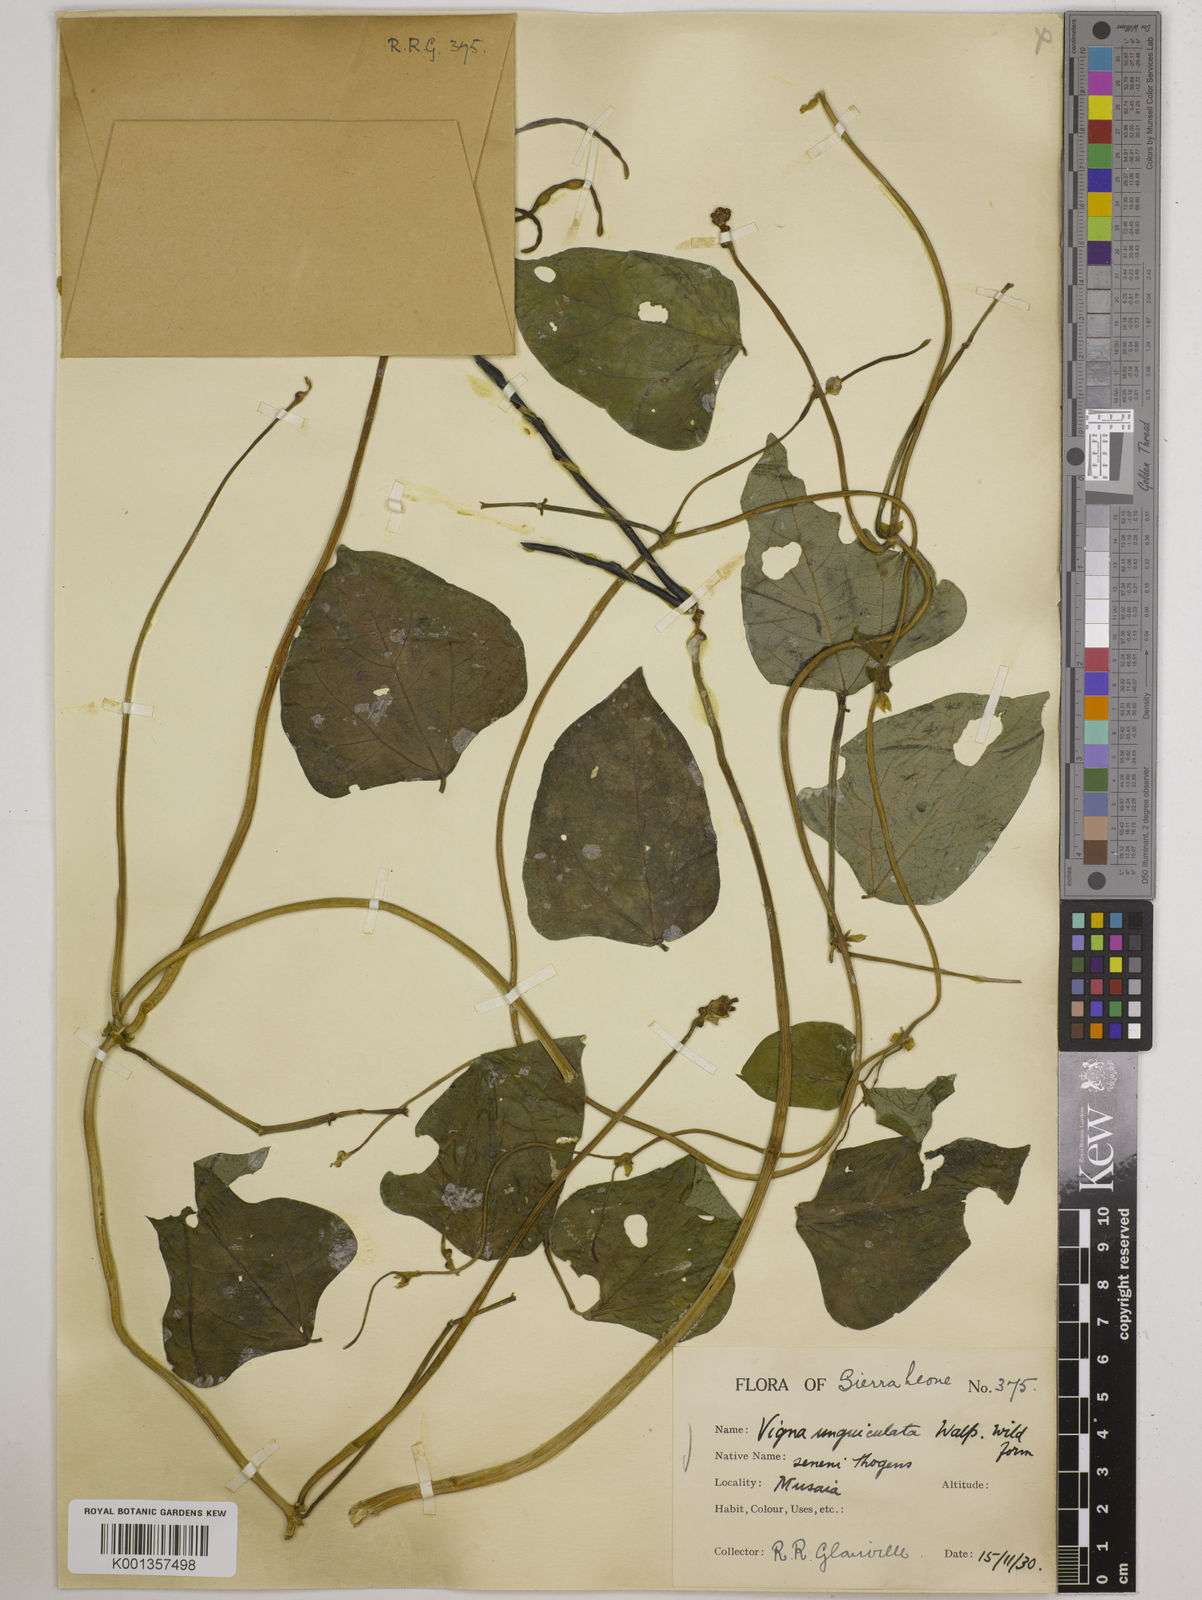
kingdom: Plantae
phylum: Tracheophyta
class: Magnoliopsida
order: Fabales
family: Fabaceae
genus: Vigna
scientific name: Vigna
